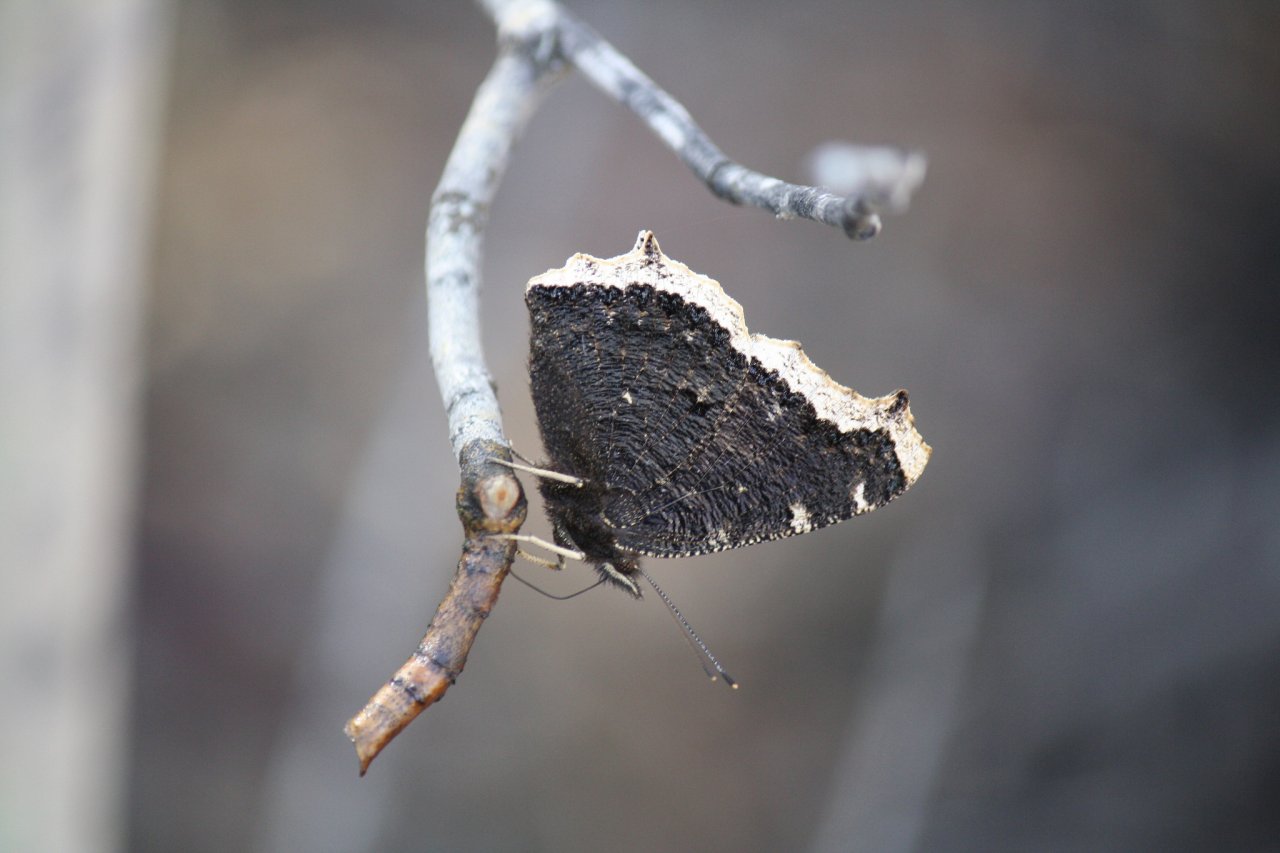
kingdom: Animalia
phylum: Arthropoda
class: Insecta
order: Lepidoptera
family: Nymphalidae
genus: Nymphalis
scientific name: Nymphalis antiopa
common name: Mourning Cloak
